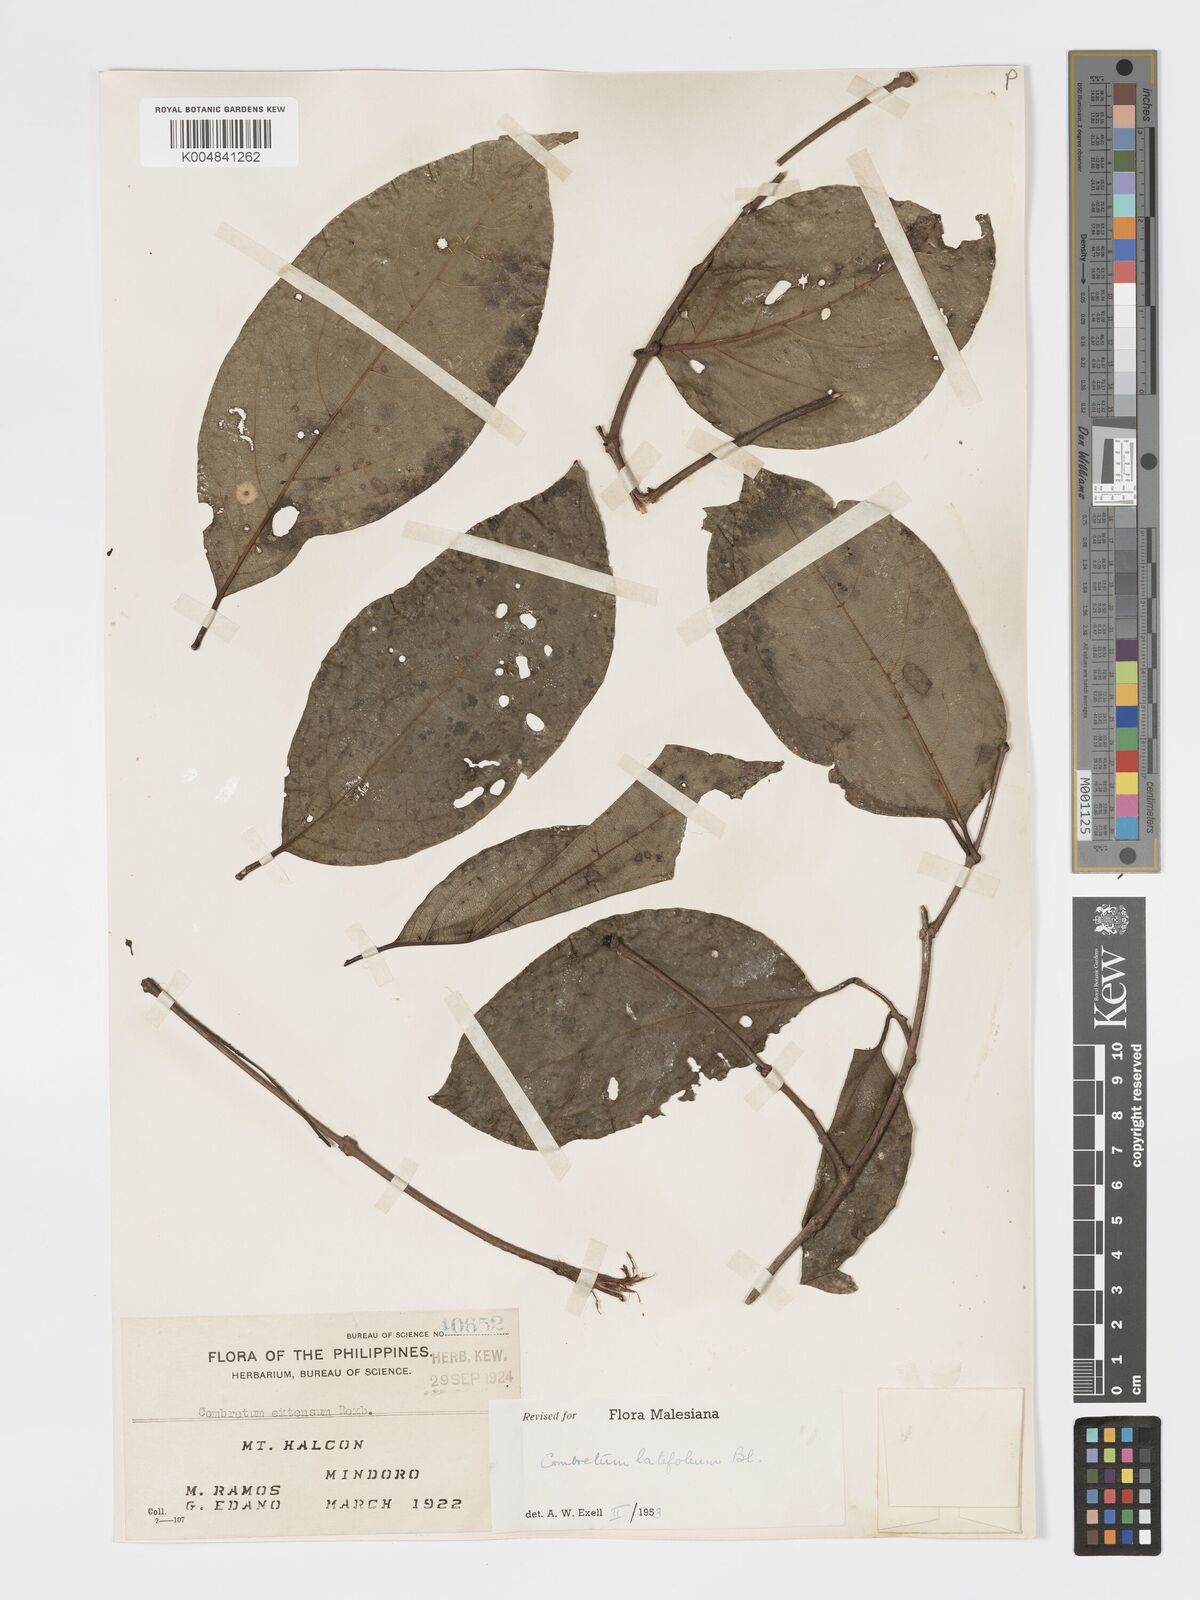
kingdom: Plantae
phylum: Tracheophyta
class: Magnoliopsida
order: Myrtales
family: Combretaceae
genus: Combretum
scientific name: Combretum
